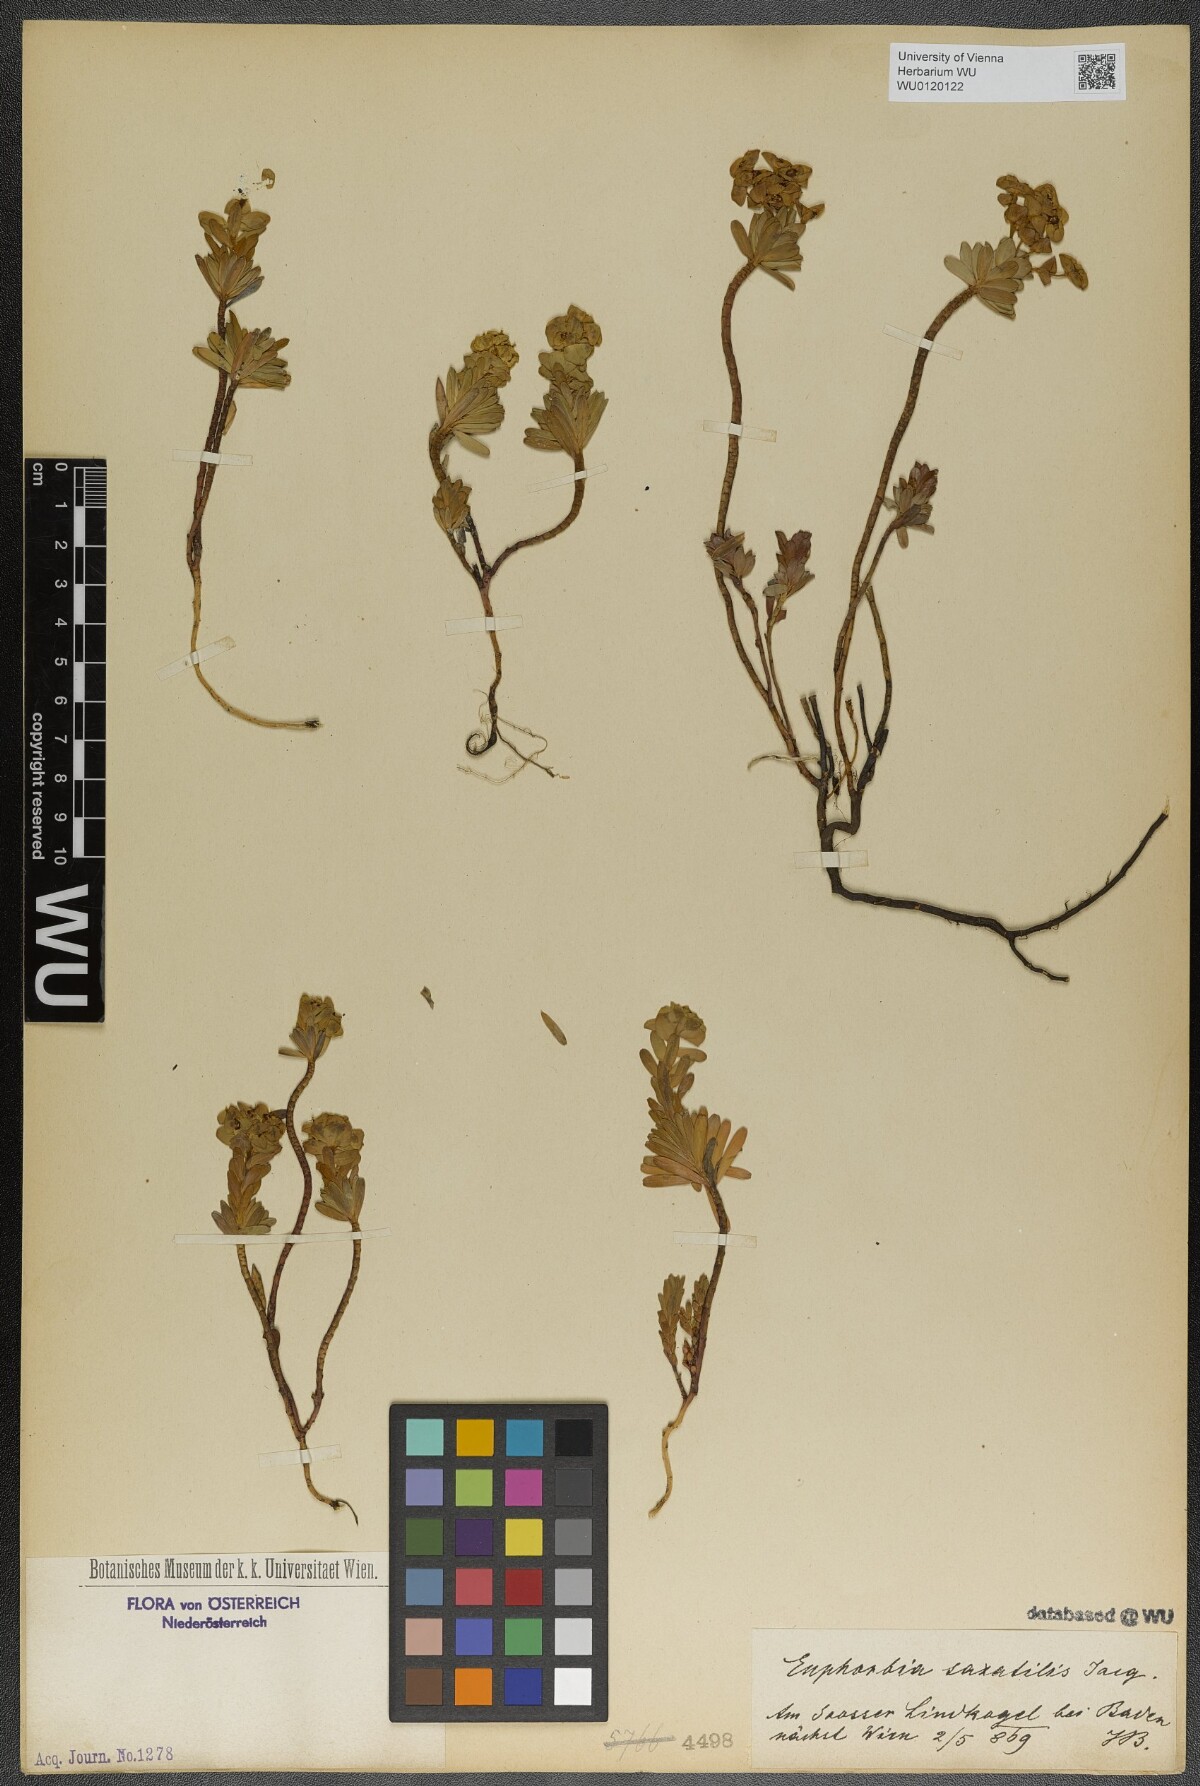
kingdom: Plantae
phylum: Tracheophyta
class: Magnoliopsida
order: Malpighiales
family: Euphorbiaceae
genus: Euphorbia
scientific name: Euphorbia saxatilis
